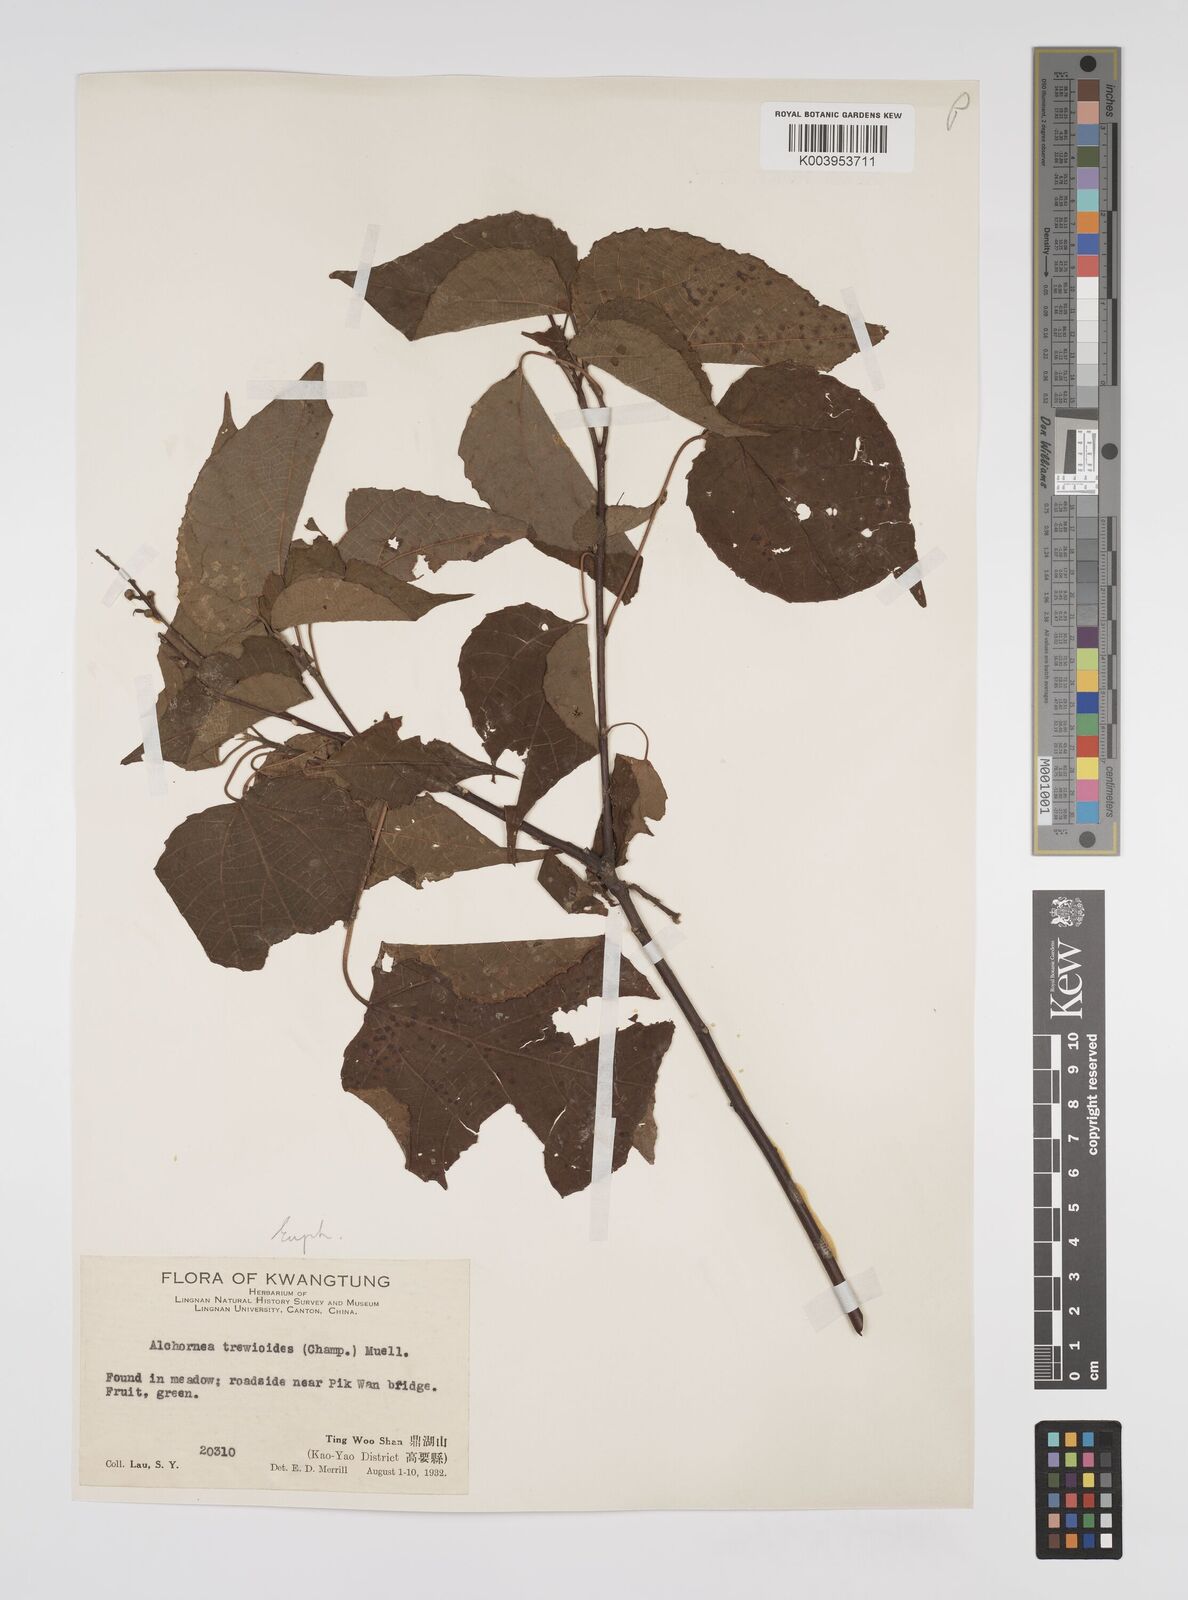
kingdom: Plantae
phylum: Tracheophyta
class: Magnoliopsida
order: Malpighiales
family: Euphorbiaceae
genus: Alchornea
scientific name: Alchornea trewioides
